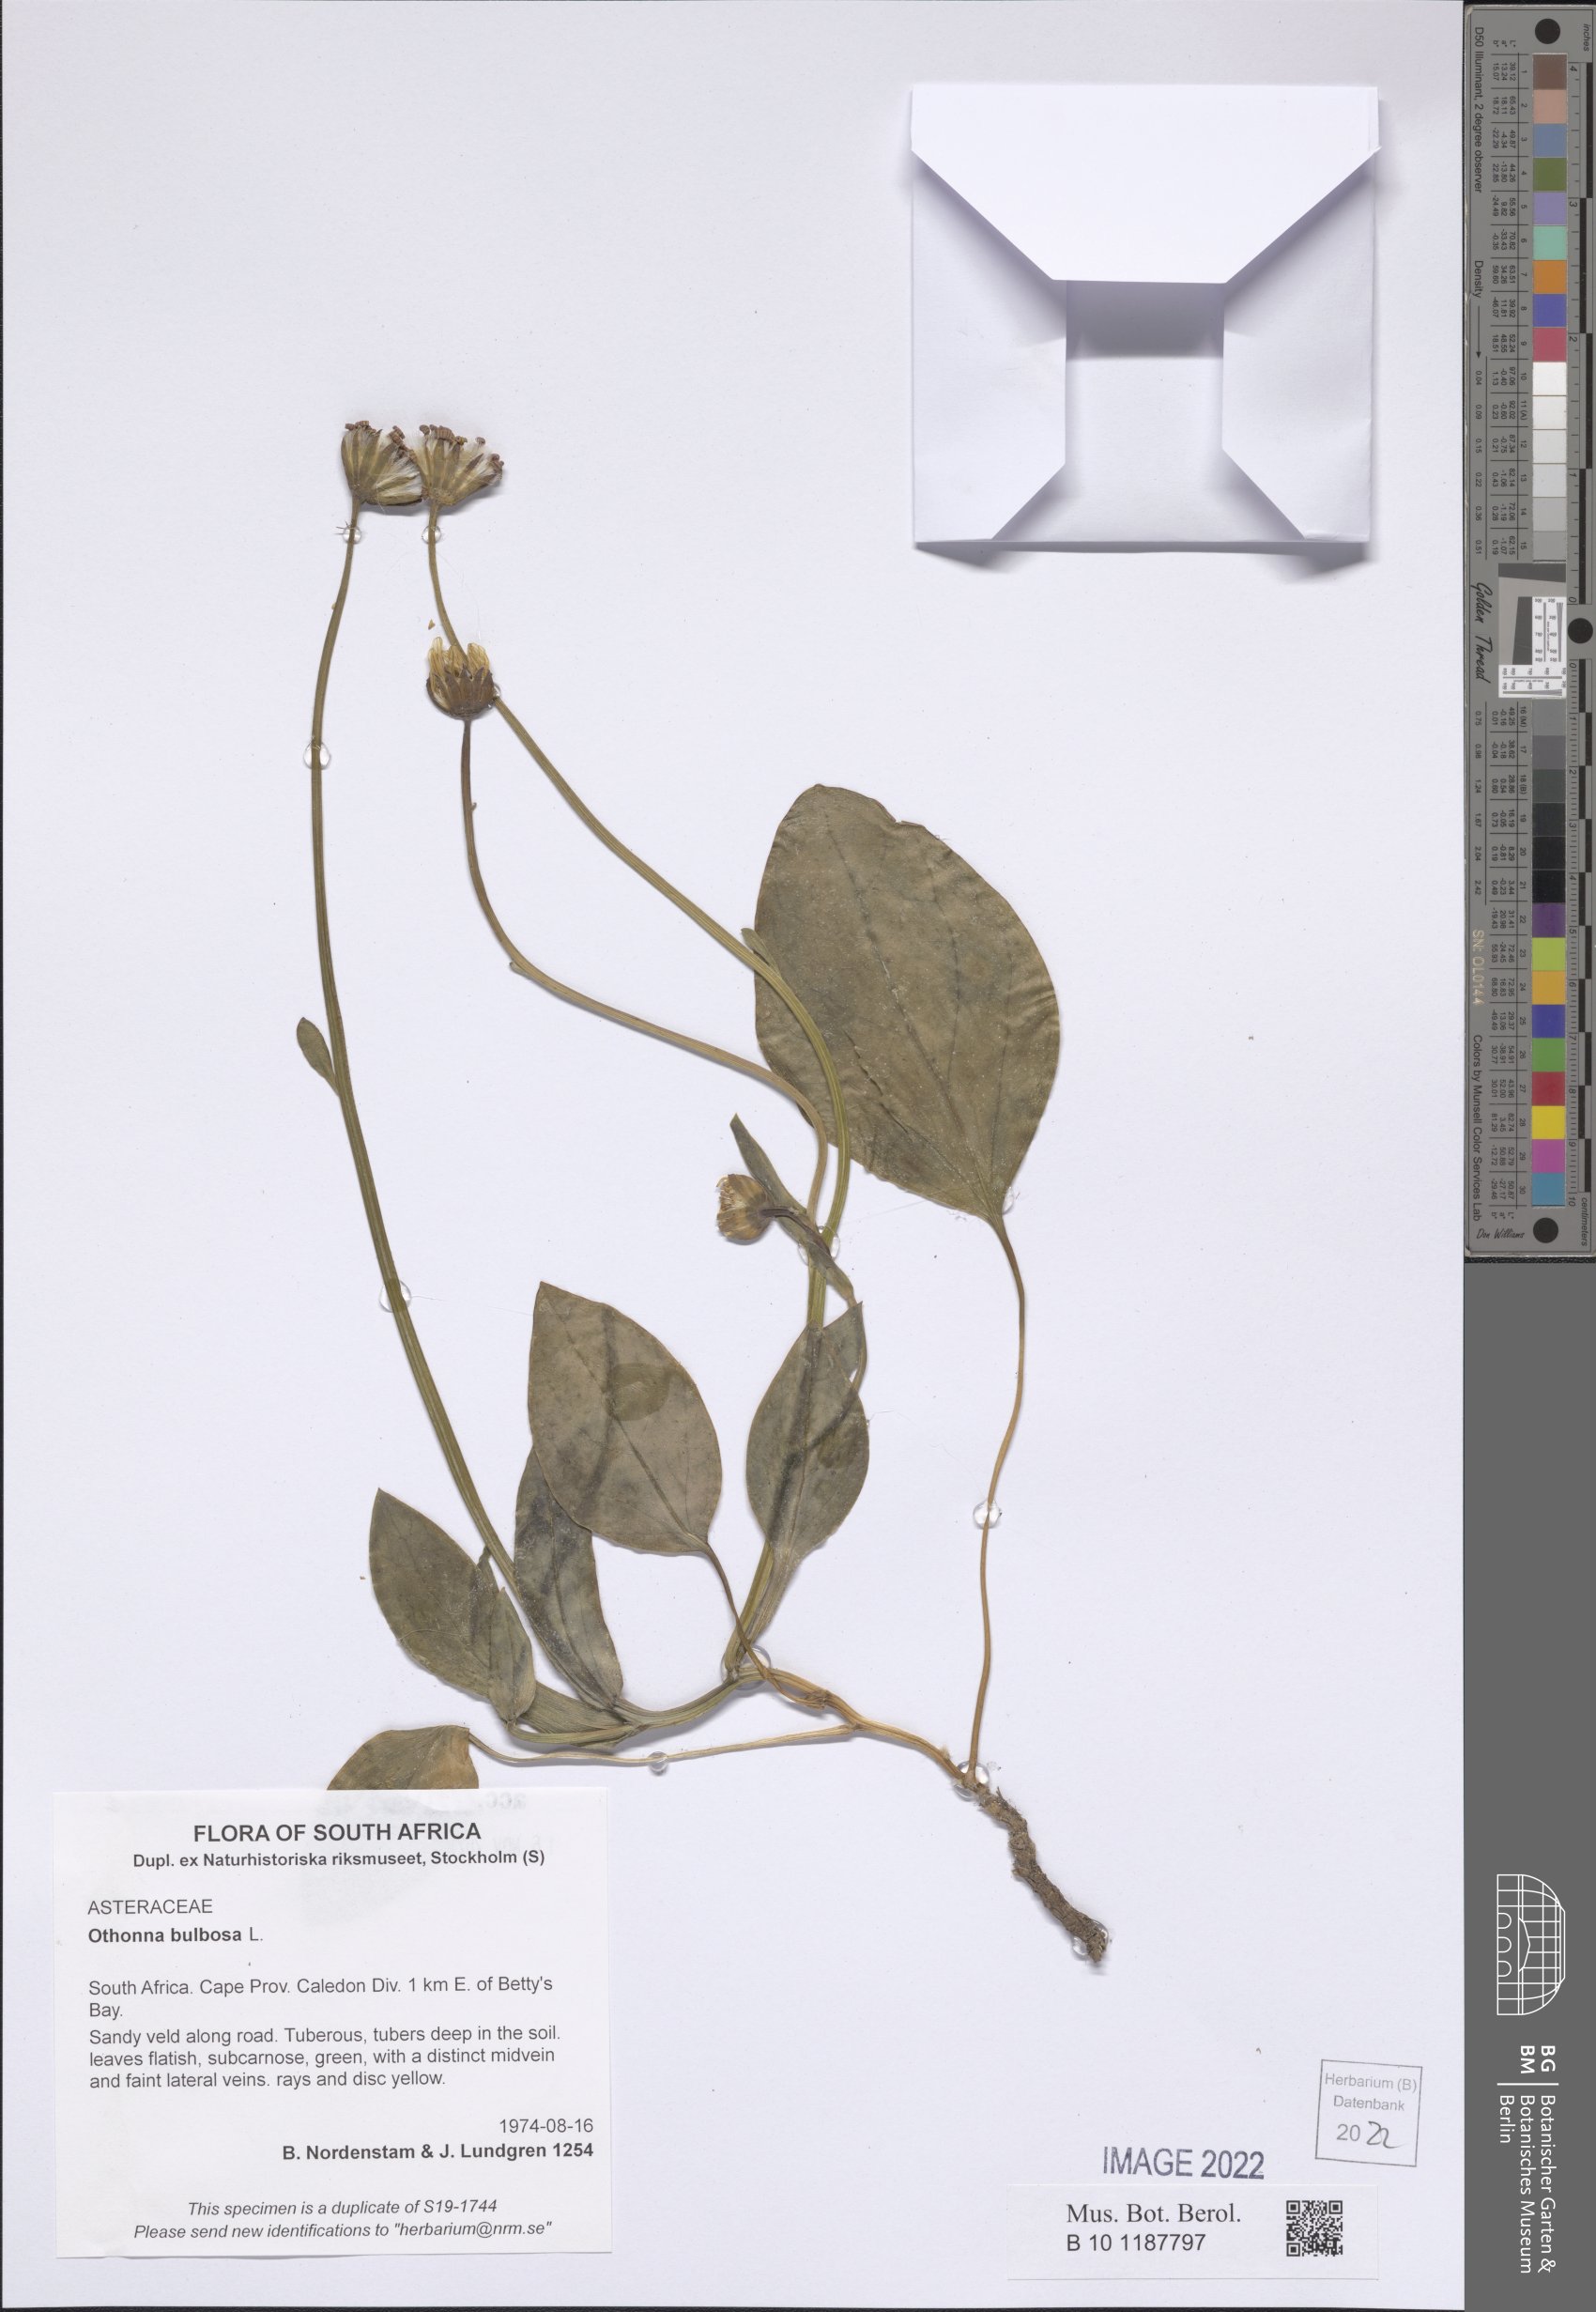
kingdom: Plantae
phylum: Tracheophyta
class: Magnoliopsida
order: Asterales
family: Asteraceae
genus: Othonna
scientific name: Othonna bulbosa
